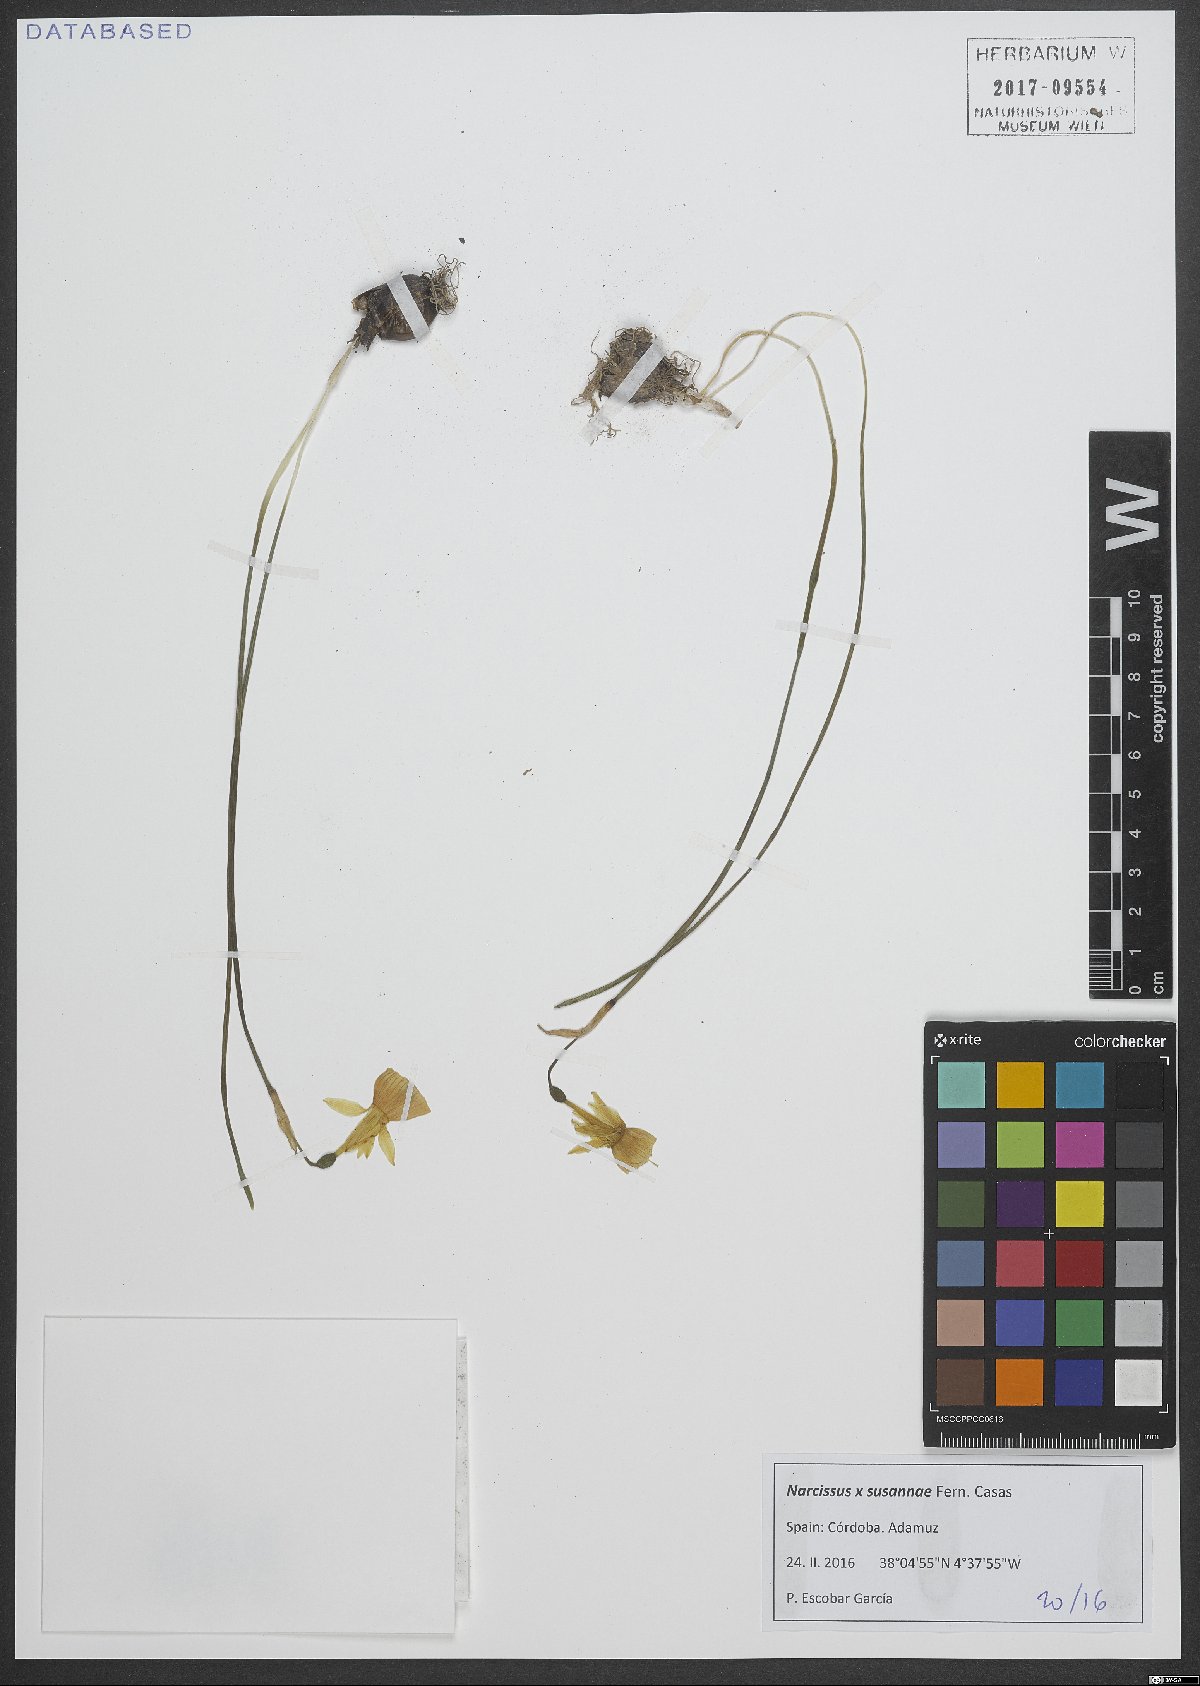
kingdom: Plantae
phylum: Tracheophyta
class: Liliopsida
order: Asparagales
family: Amaryllidaceae
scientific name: Amaryllidaceae
